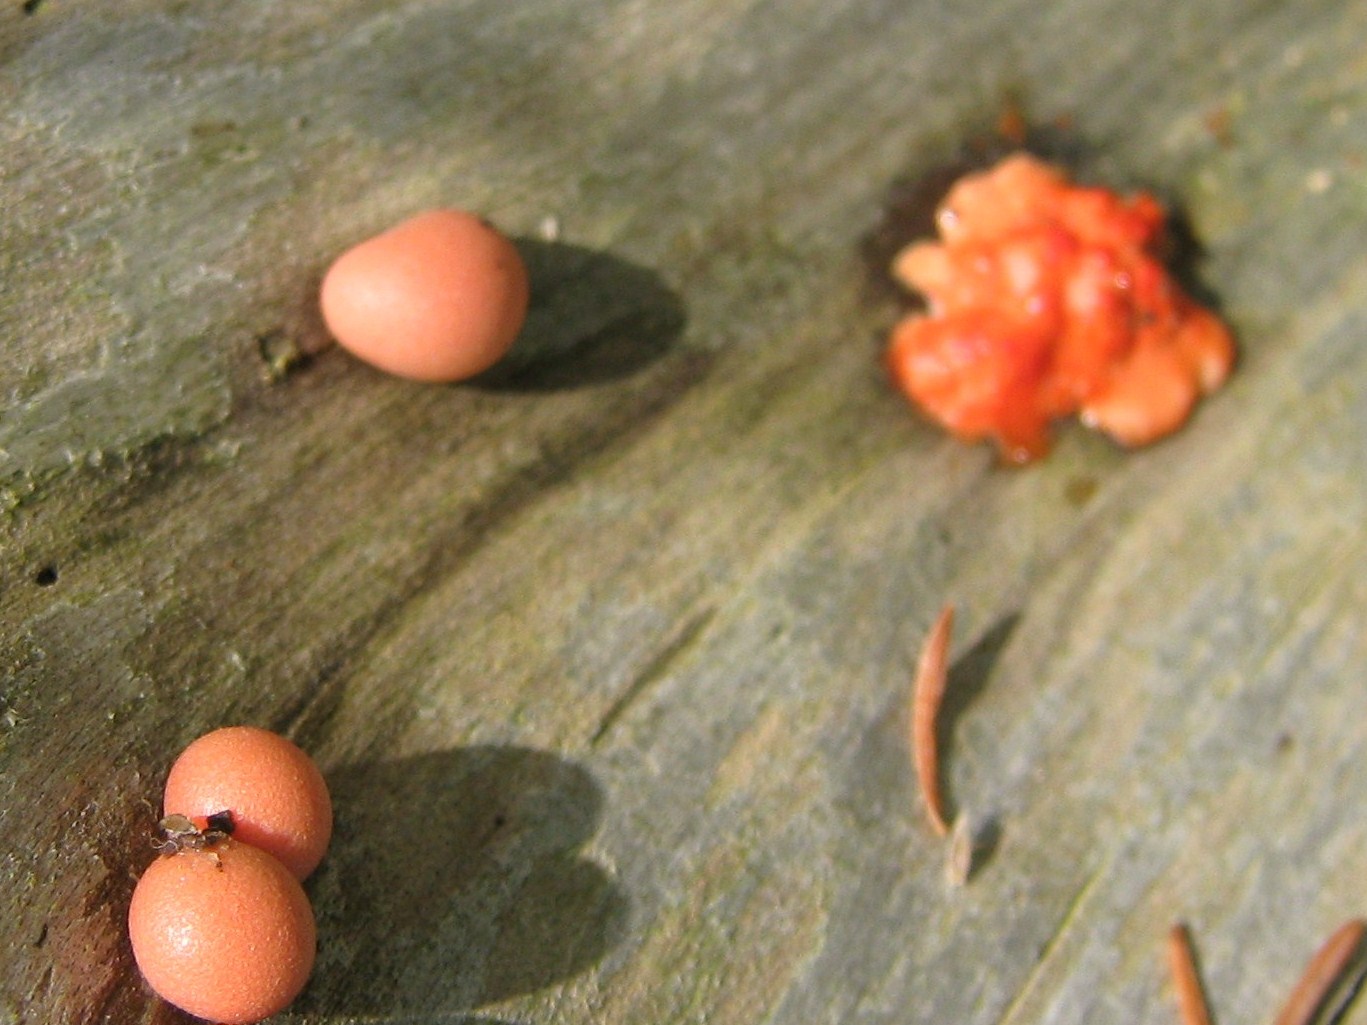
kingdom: Protozoa
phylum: Mycetozoa
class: Myxomycetes
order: Cribrariales
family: Tubiferaceae
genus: Lycogala
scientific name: Lycogala epidendrum
